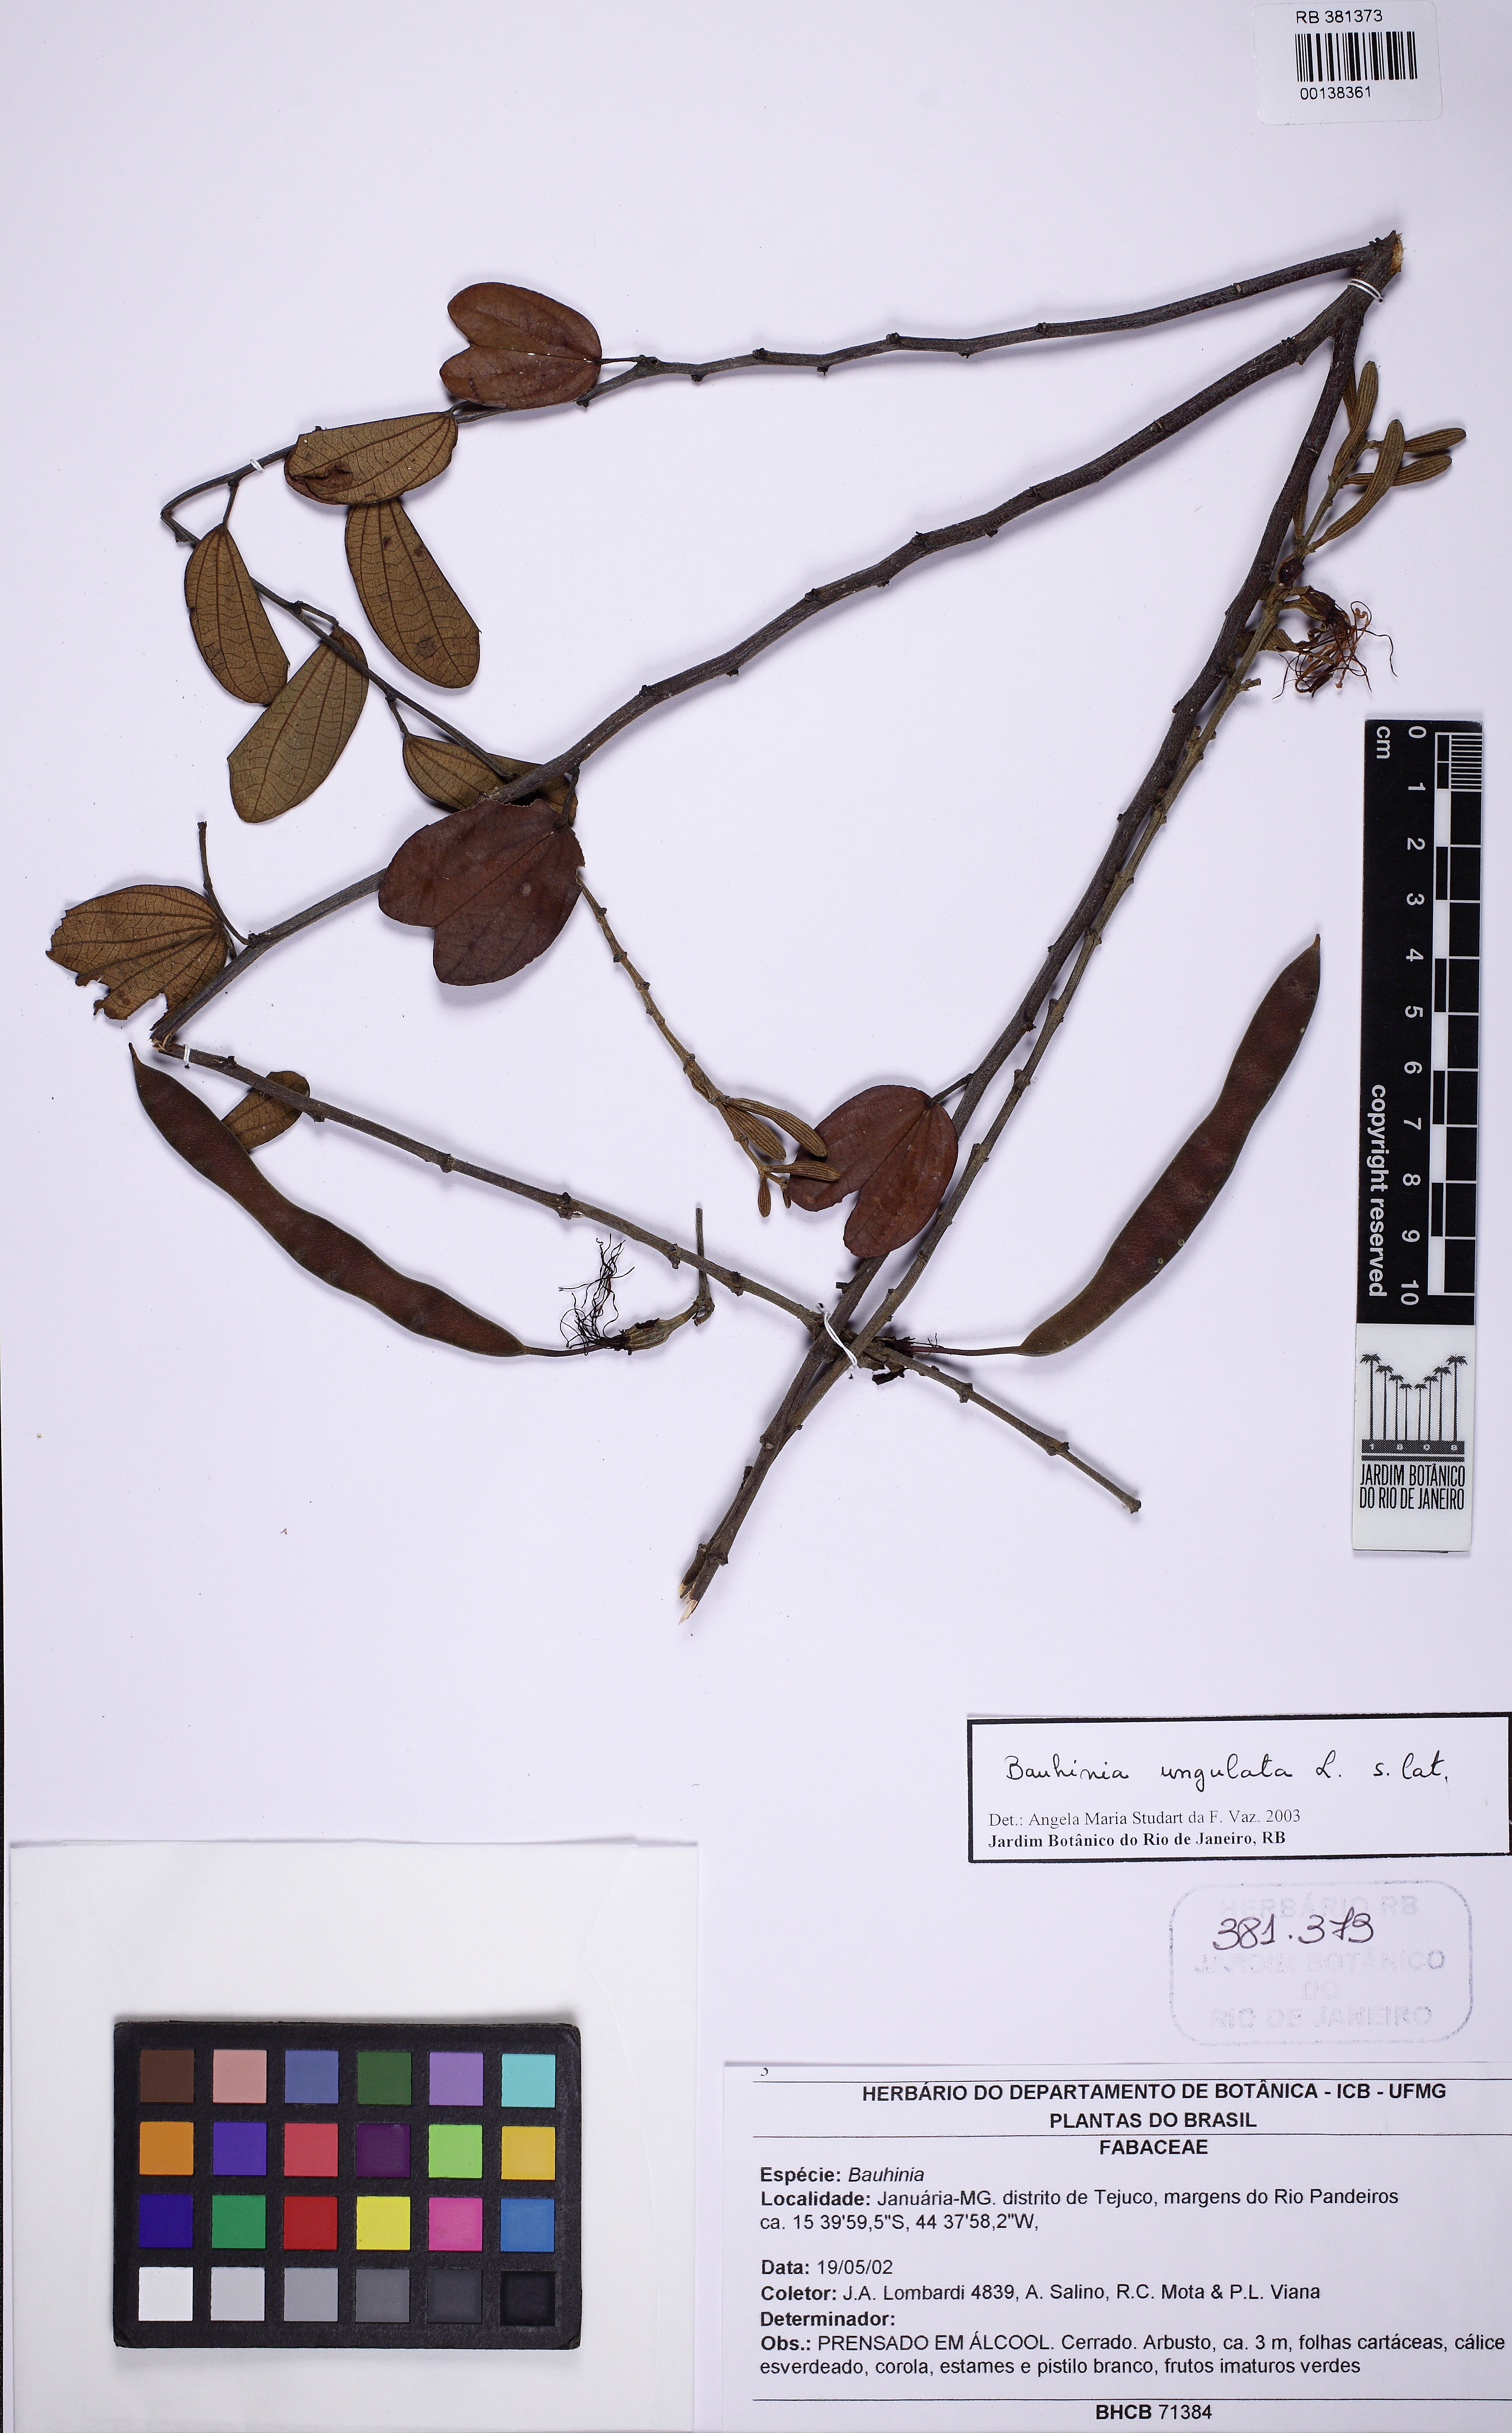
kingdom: Plantae
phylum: Tracheophyta
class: Magnoliopsida
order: Fabales
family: Fabaceae
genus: Bauhinia
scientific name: Bauhinia ungulata
